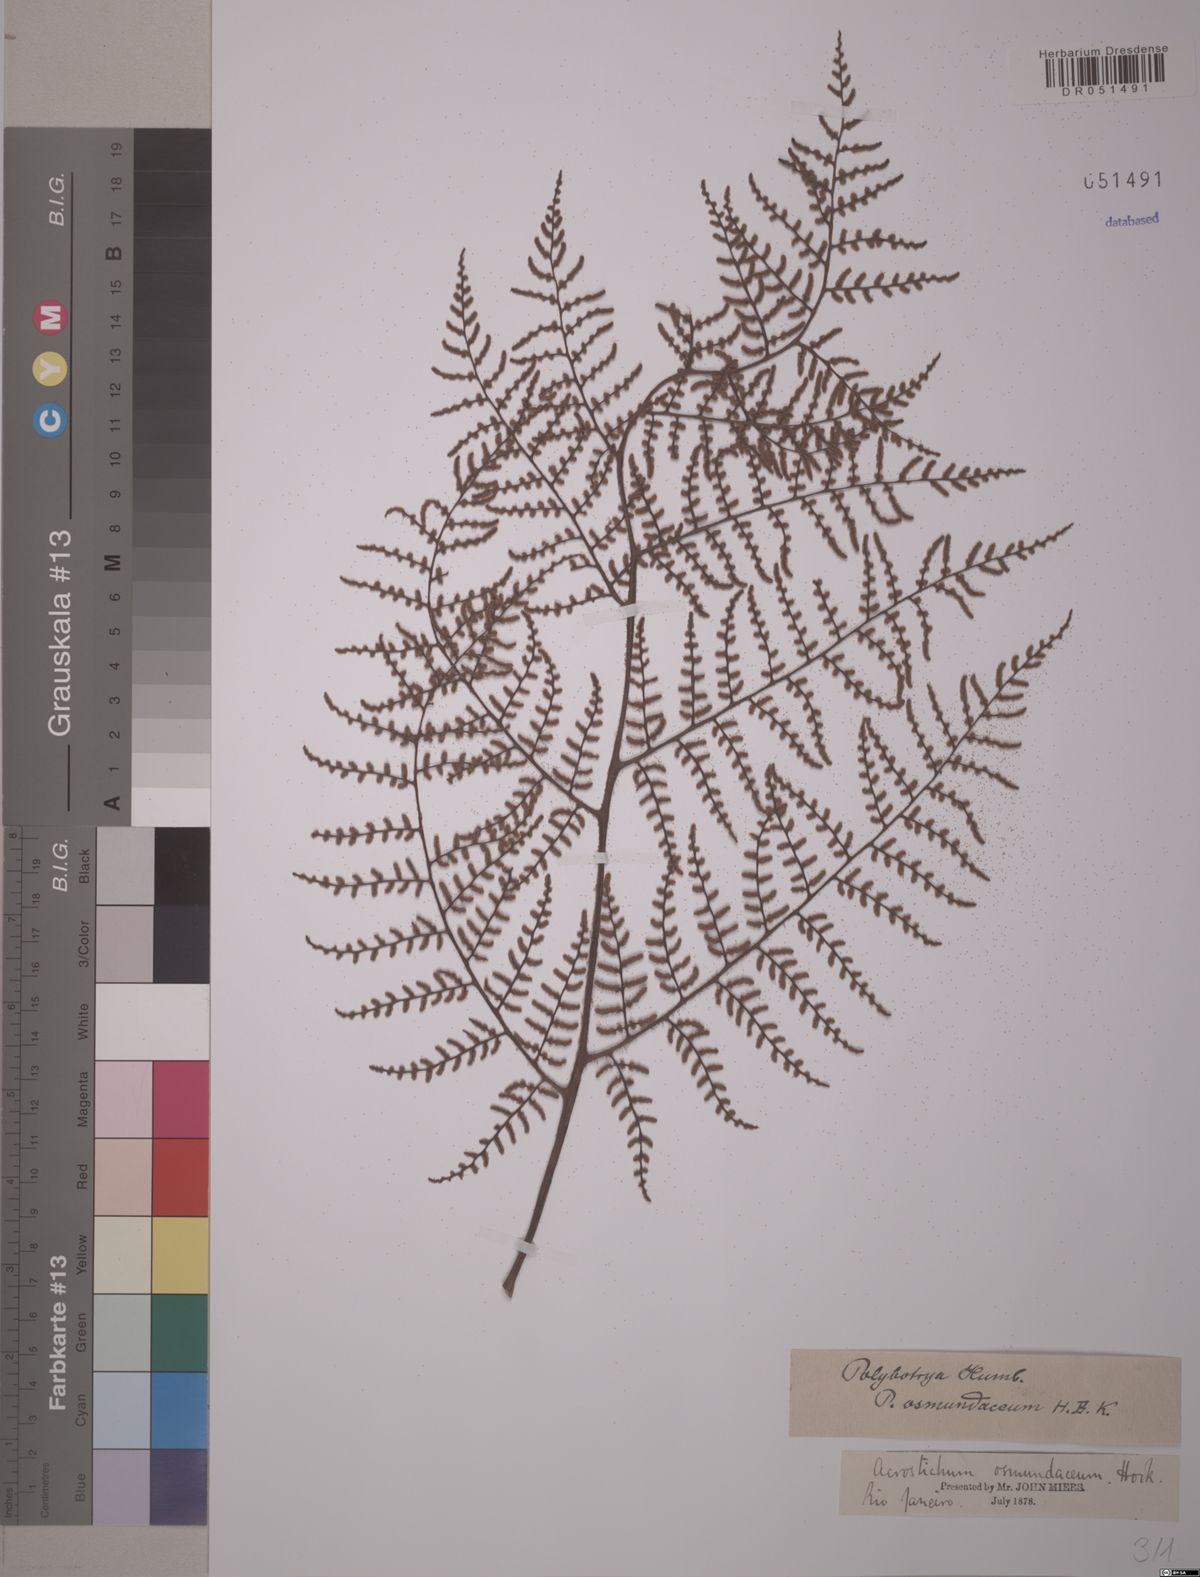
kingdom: Plantae
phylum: Tracheophyta
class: Polypodiopsida
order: Polypodiales
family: Dryopteridaceae
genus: Polybotrya
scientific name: Polybotrya osmundacea
